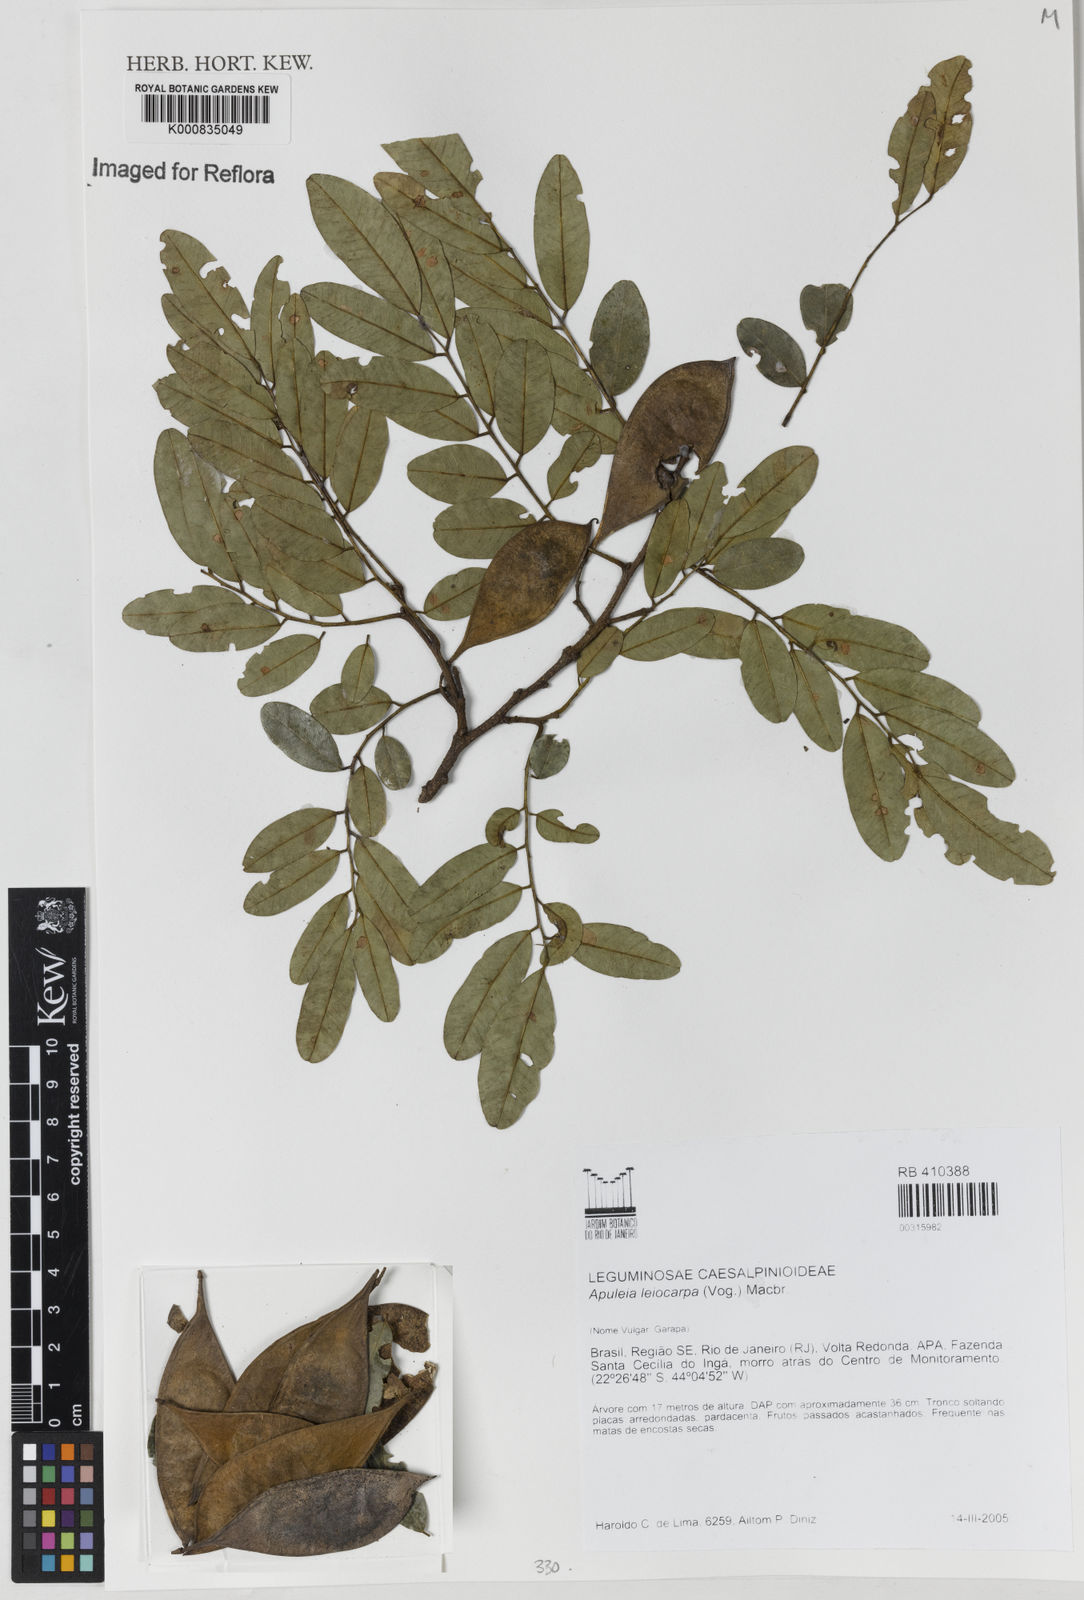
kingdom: Plantae
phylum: Tracheophyta
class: Magnoliopsida
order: Fabales
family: Fabaceae
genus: Apuleia
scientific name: Apuleia leiocarpa
